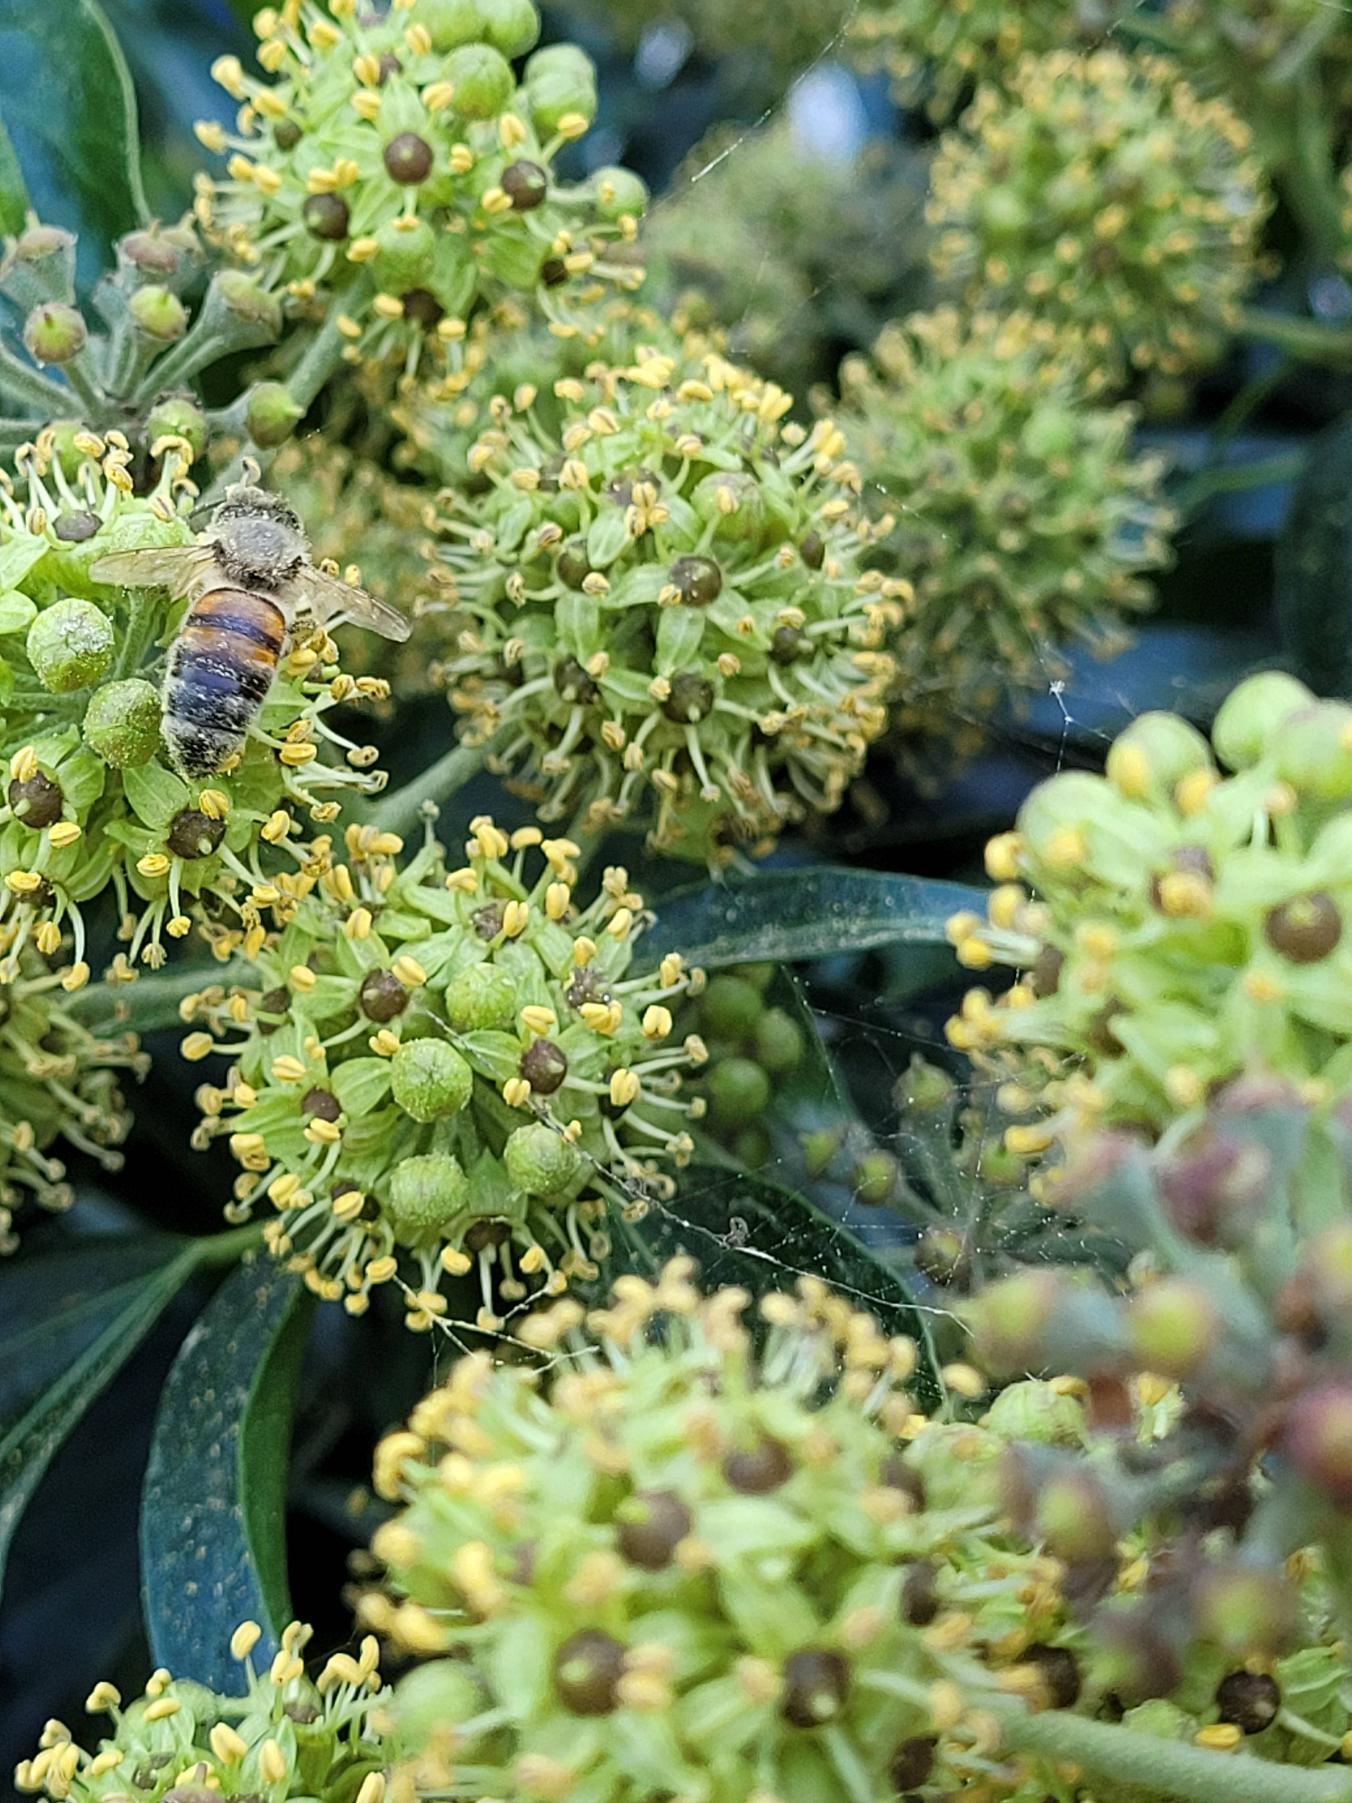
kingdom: Animalia
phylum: Arthropoda
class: Insecta
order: Hymenoptera
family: Apidae
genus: Apis
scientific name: Apis mellifera
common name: Honningbi
